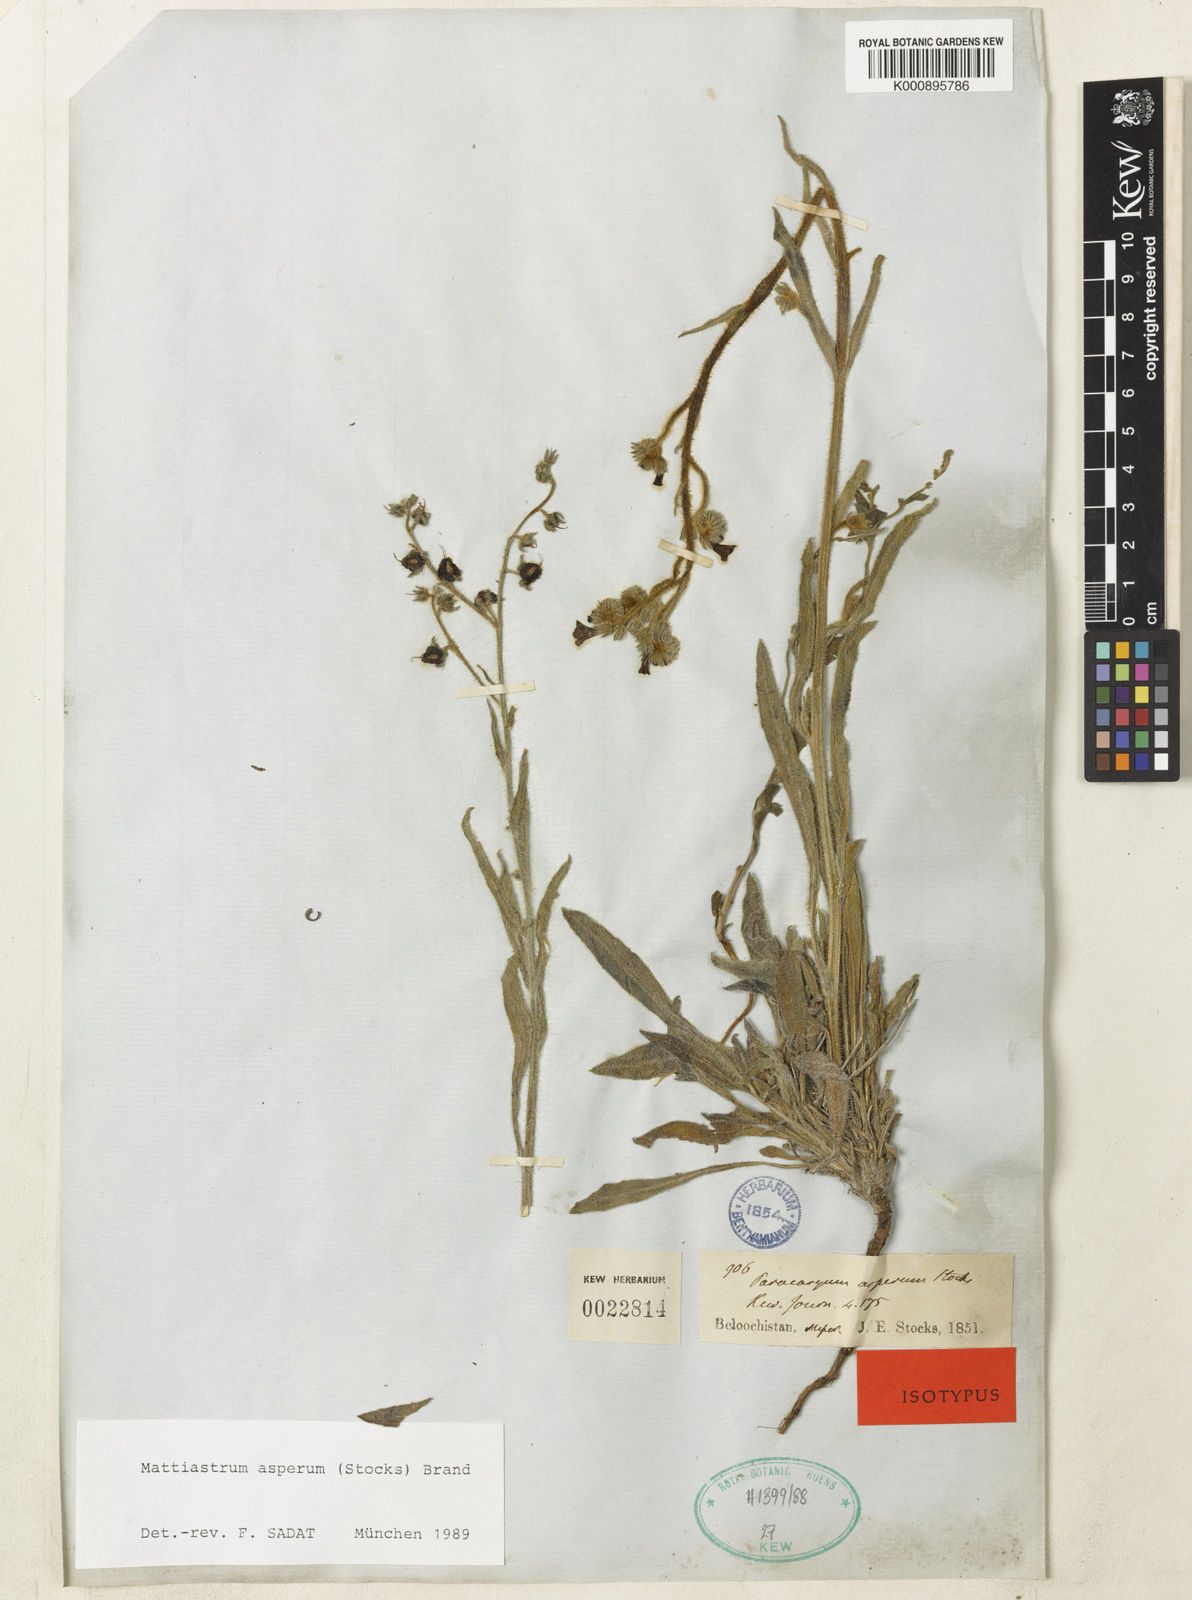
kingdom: Plantae
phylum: Tracheophyta
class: Magnoliopsida
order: Boraginales
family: Boraginaceae
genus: Paracaryum
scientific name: Paracaryum asperum
